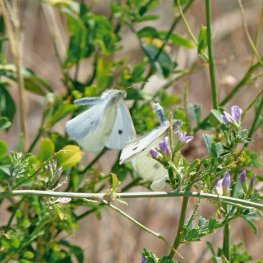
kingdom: Animalia
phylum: Arthropoda
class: Insecta
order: Lepidoptera
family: Pieridae
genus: Pieris
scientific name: Pieris rapae
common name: Cabbage White
